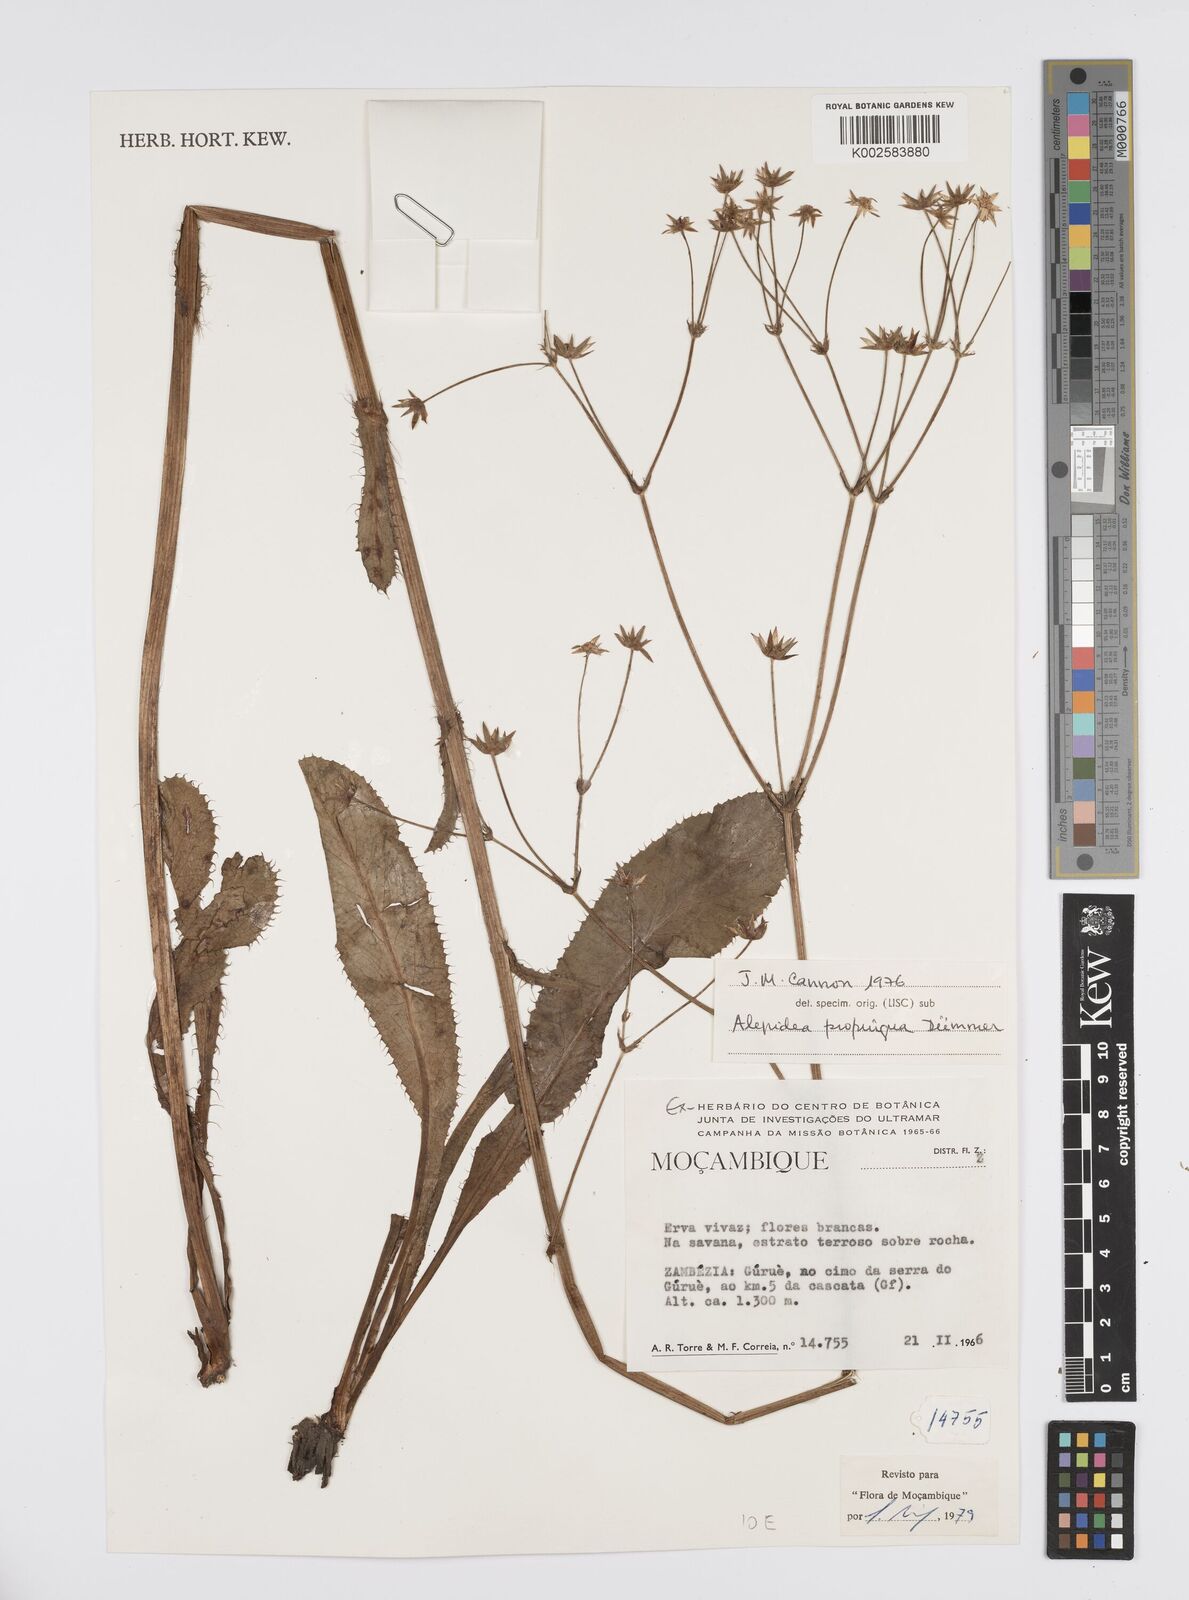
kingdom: Plantae
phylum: Tracheophyta
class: Magnoliopsida
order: Apiales
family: Apiaceae
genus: Alepidea
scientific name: Alepidea
